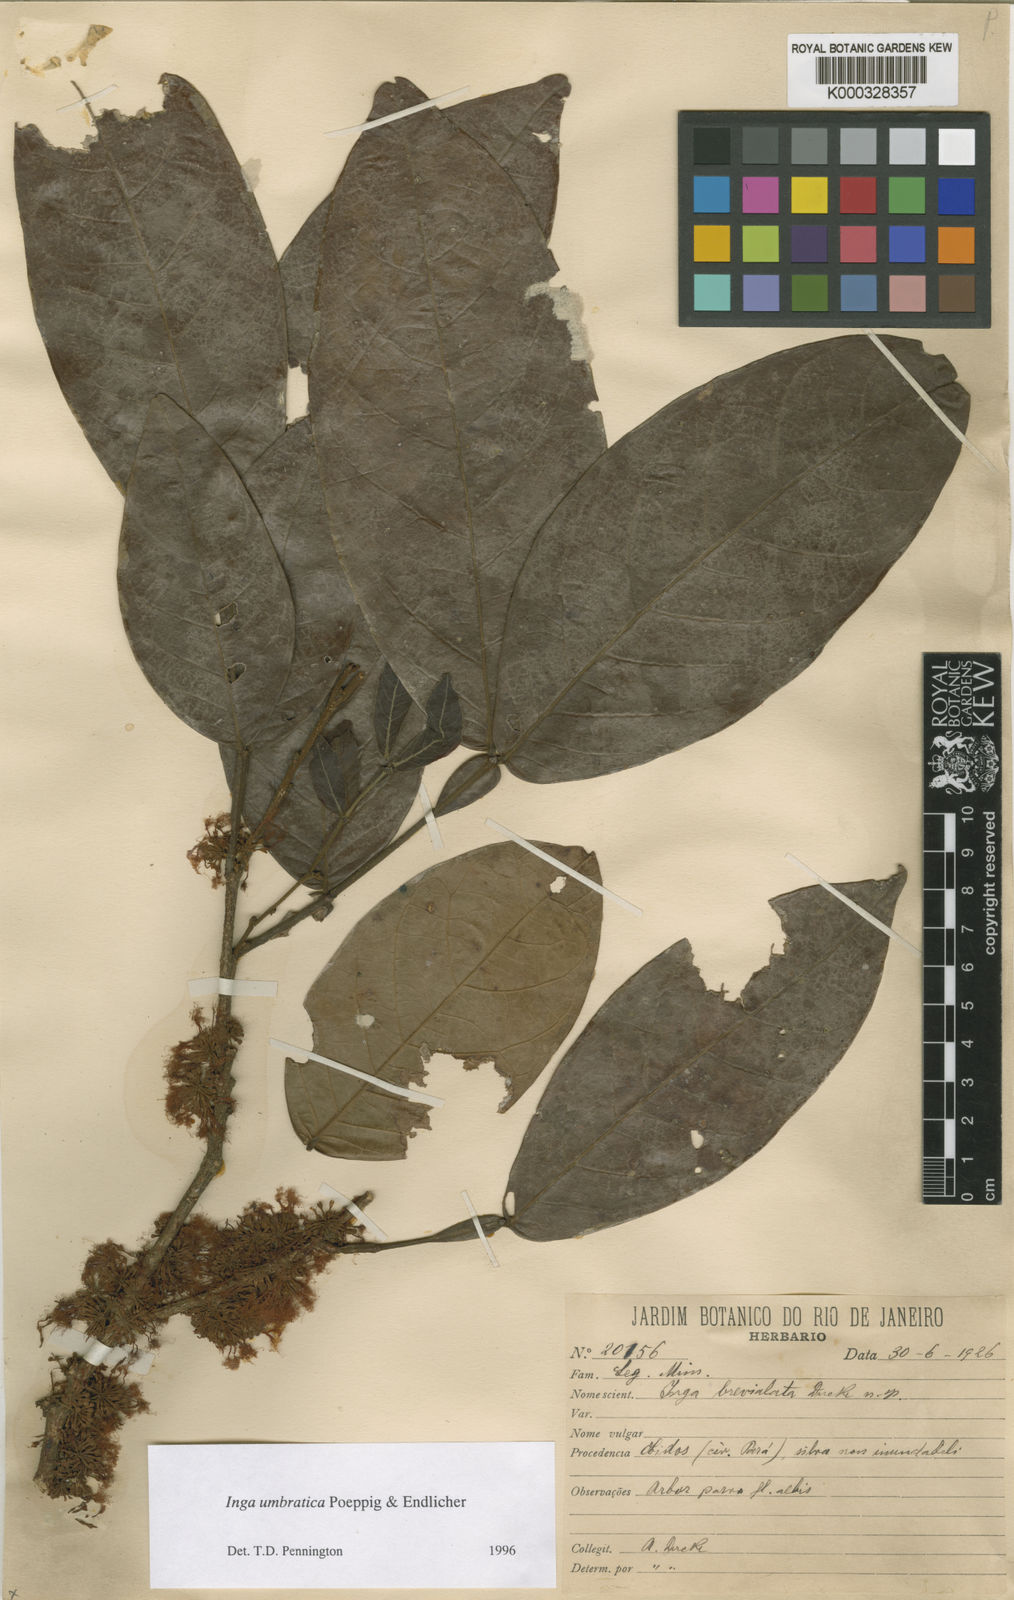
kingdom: Plantae
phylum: Tracheophyta
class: Magnoliopsida
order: Fabales
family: Fabaceae
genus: Inga
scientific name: Inga umbratica
